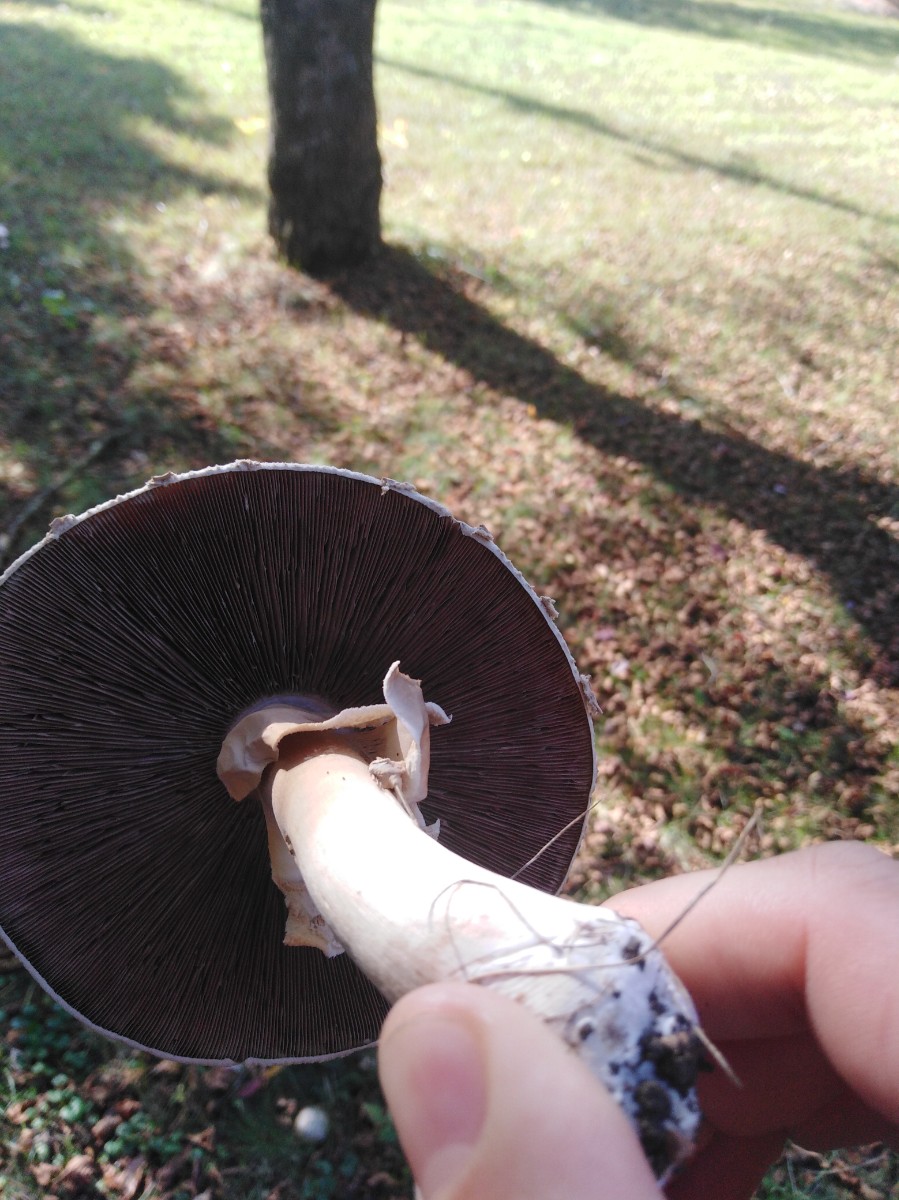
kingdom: Fungi
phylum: Basidiomycota
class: Agaricomycetes
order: Agaricales
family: Agaricaceae
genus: Agaricus
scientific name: Agaricus xanthodermus
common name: karbol-champignon
